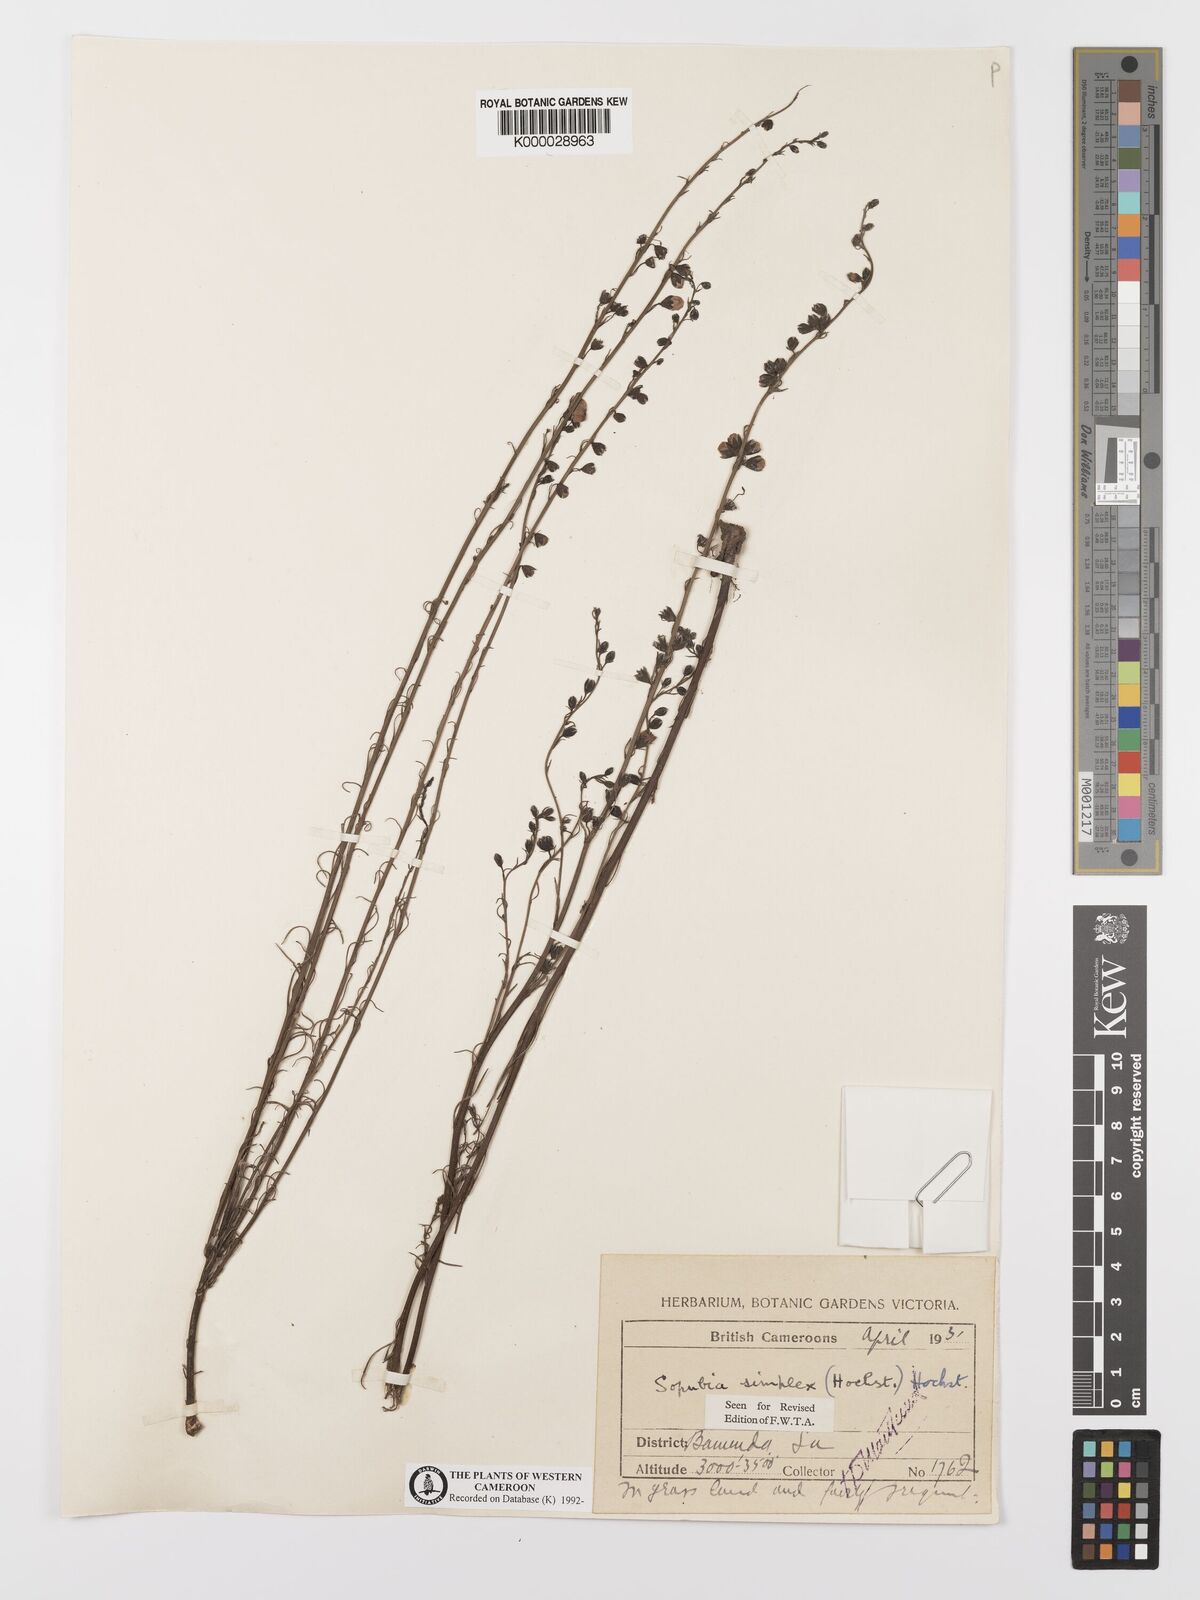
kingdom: Plantae
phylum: Tracheophyta
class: Magnoliopsida
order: Lamiales
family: Orobanchaceae
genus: Sopubia
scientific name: Sopubia simplex
